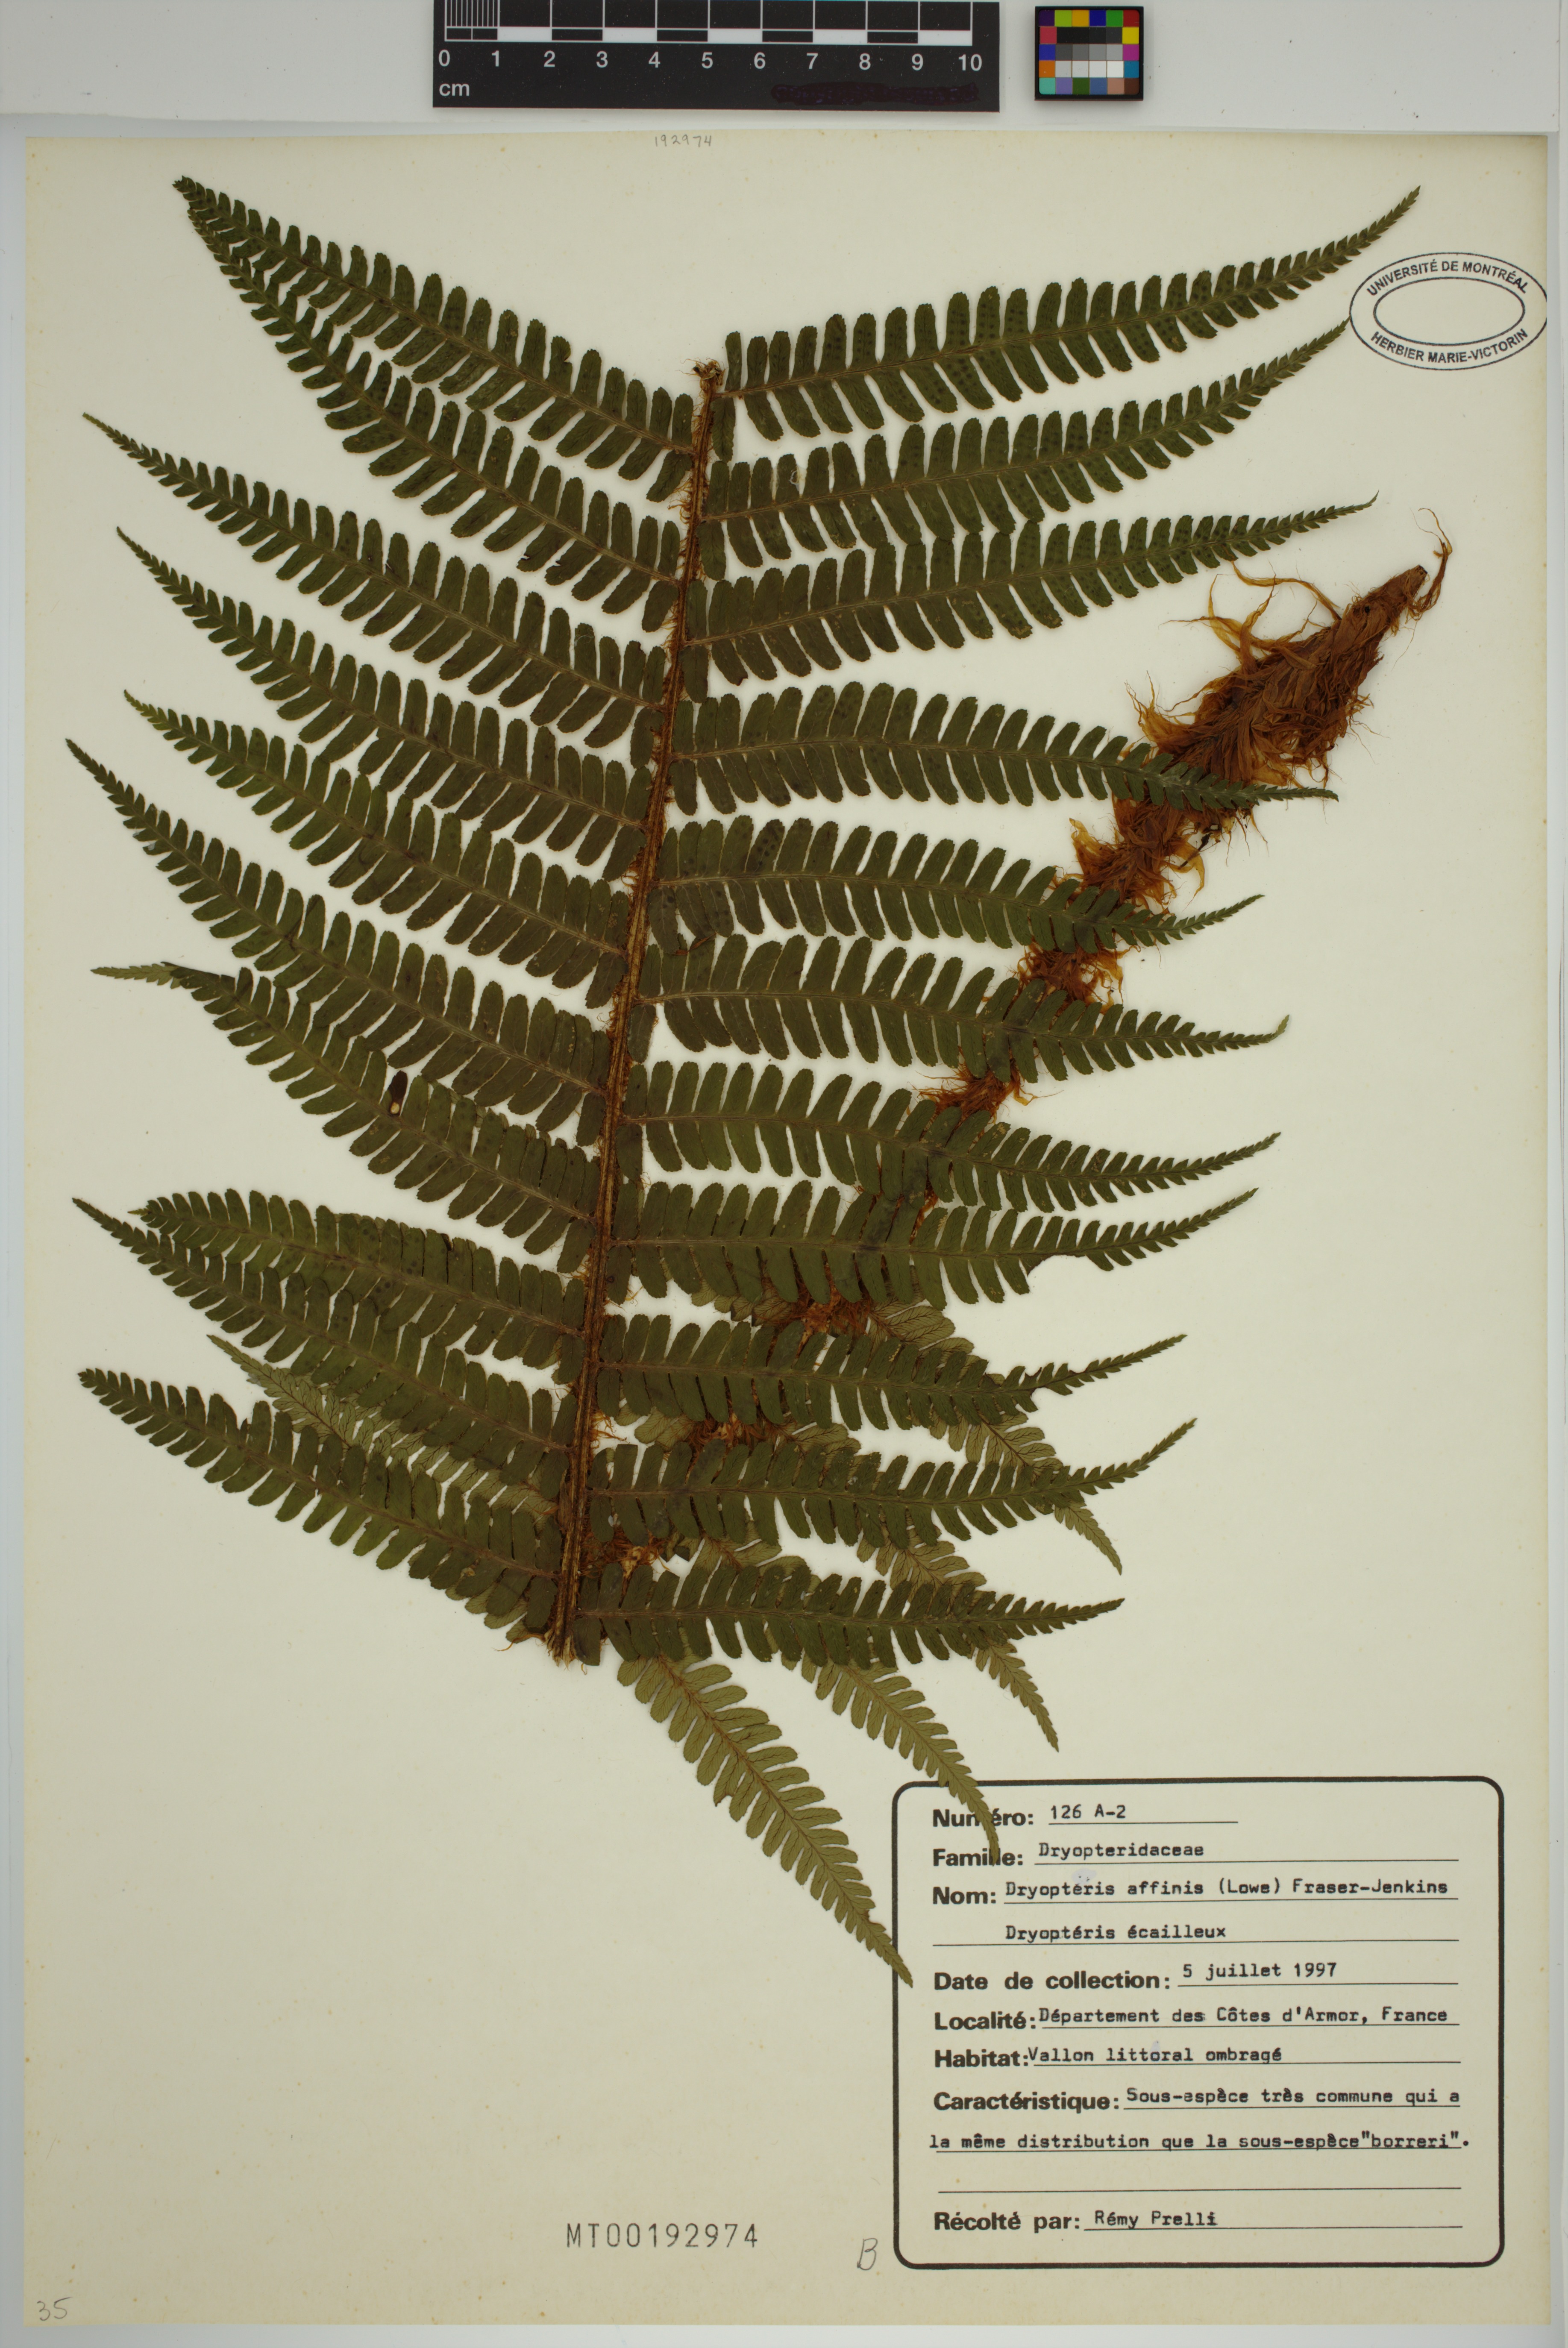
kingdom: Plantae
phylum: Tracheophyta
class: Polypodiopsida
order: Polypodiales
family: Dryopteridaceae
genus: Dryopteris
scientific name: Dryopteris affinis
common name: Scaly male fern
